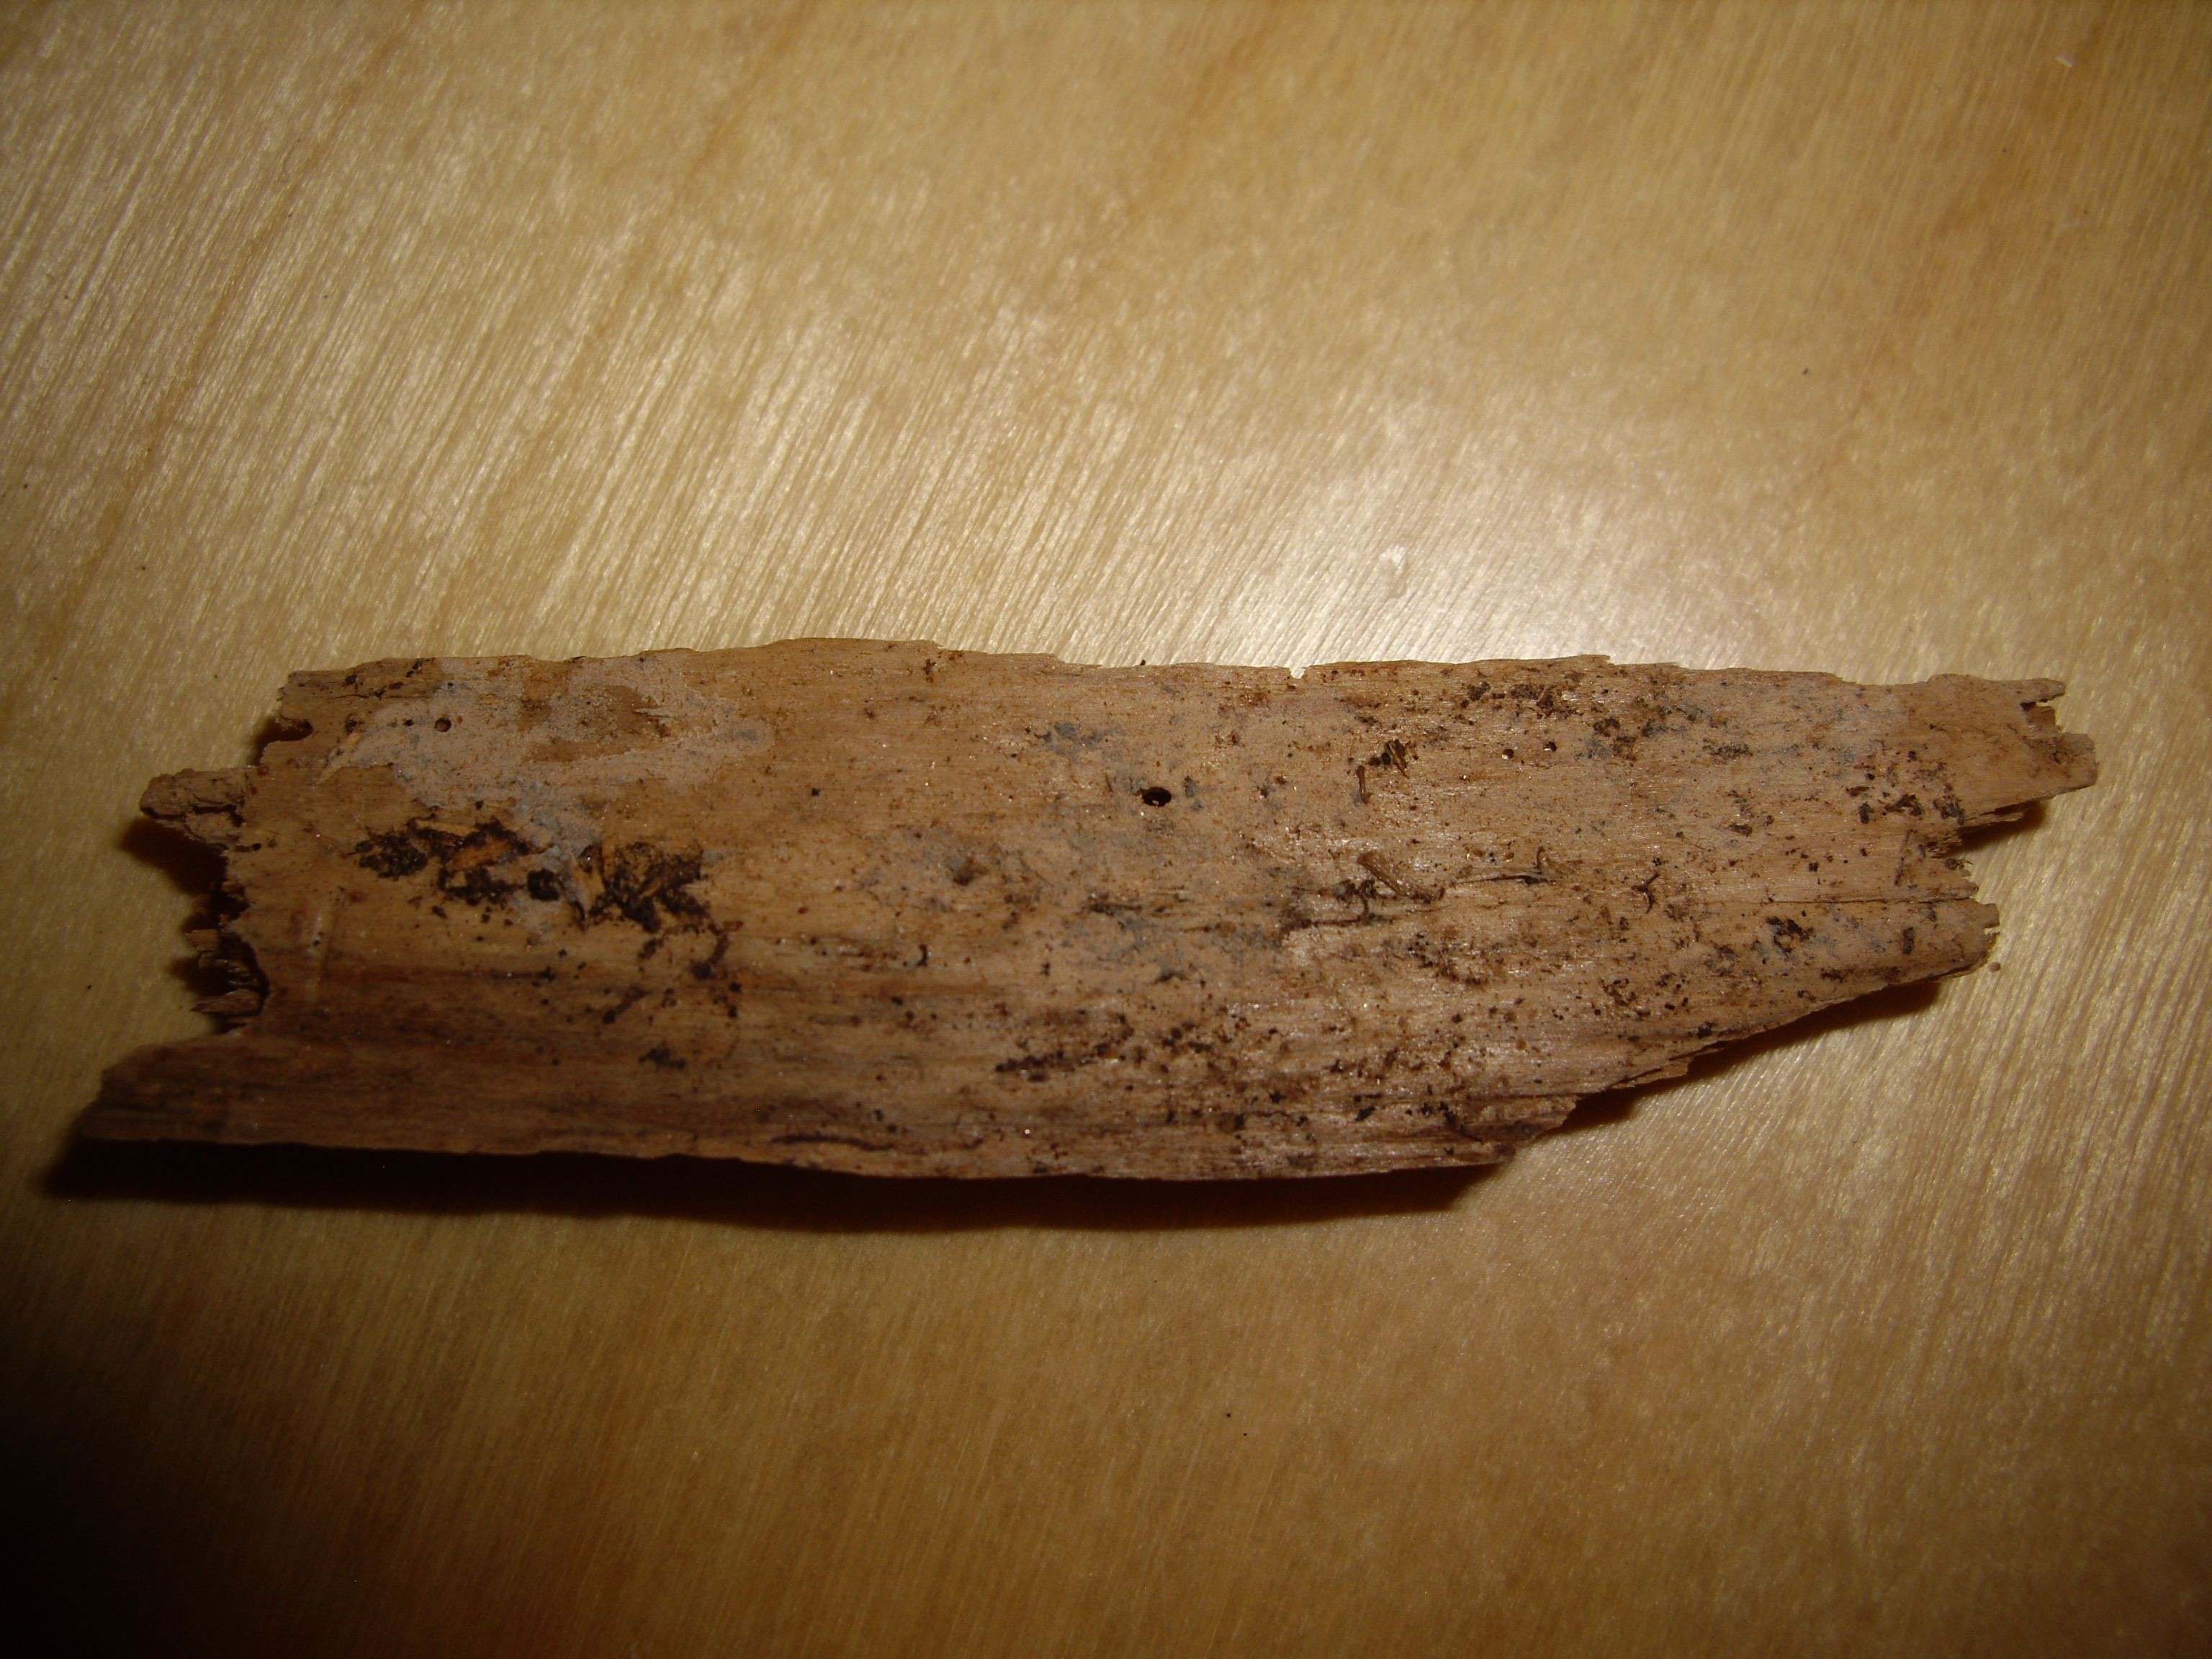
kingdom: Fungi
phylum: Basidiomycota
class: Agaricomycetes
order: Cantharellales
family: Botryobasidiaceae
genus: Suillosporium
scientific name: Suillosporium cystidiatum
